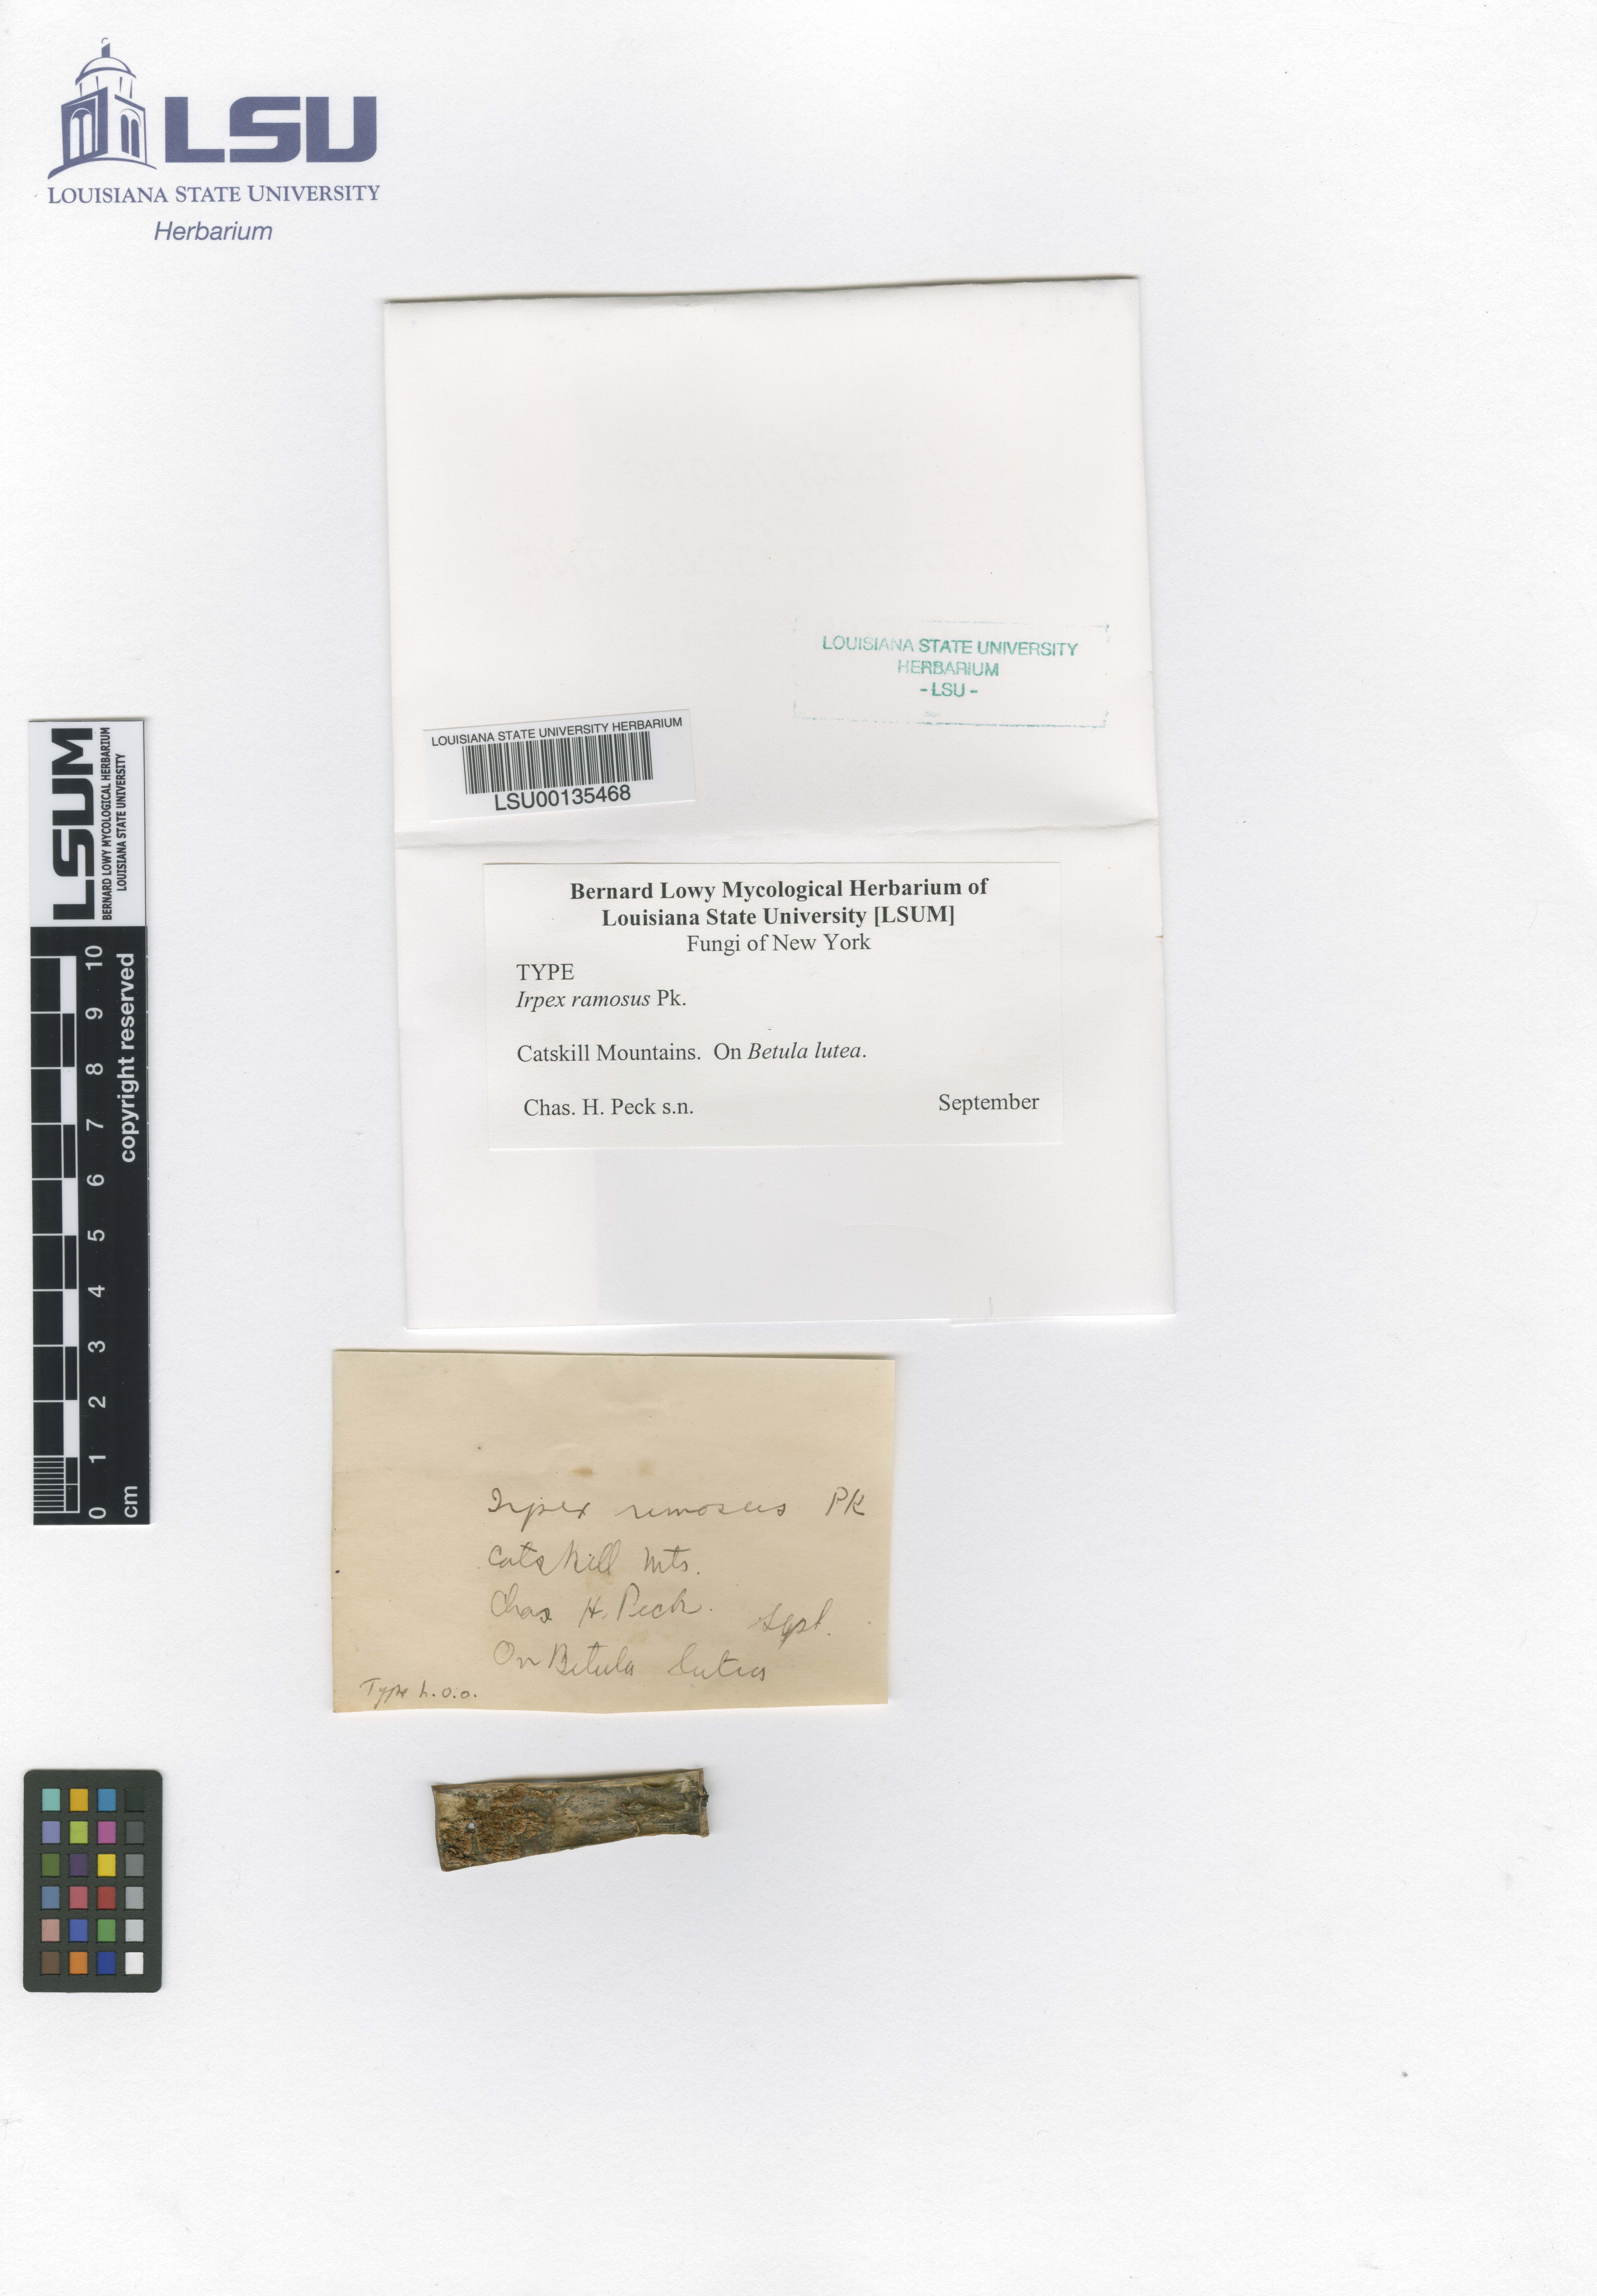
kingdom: Fungi
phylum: Basidiomycota
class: Agaricomycetes
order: Polyporales
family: Irpicaceae
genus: Irpex
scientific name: Irpex
